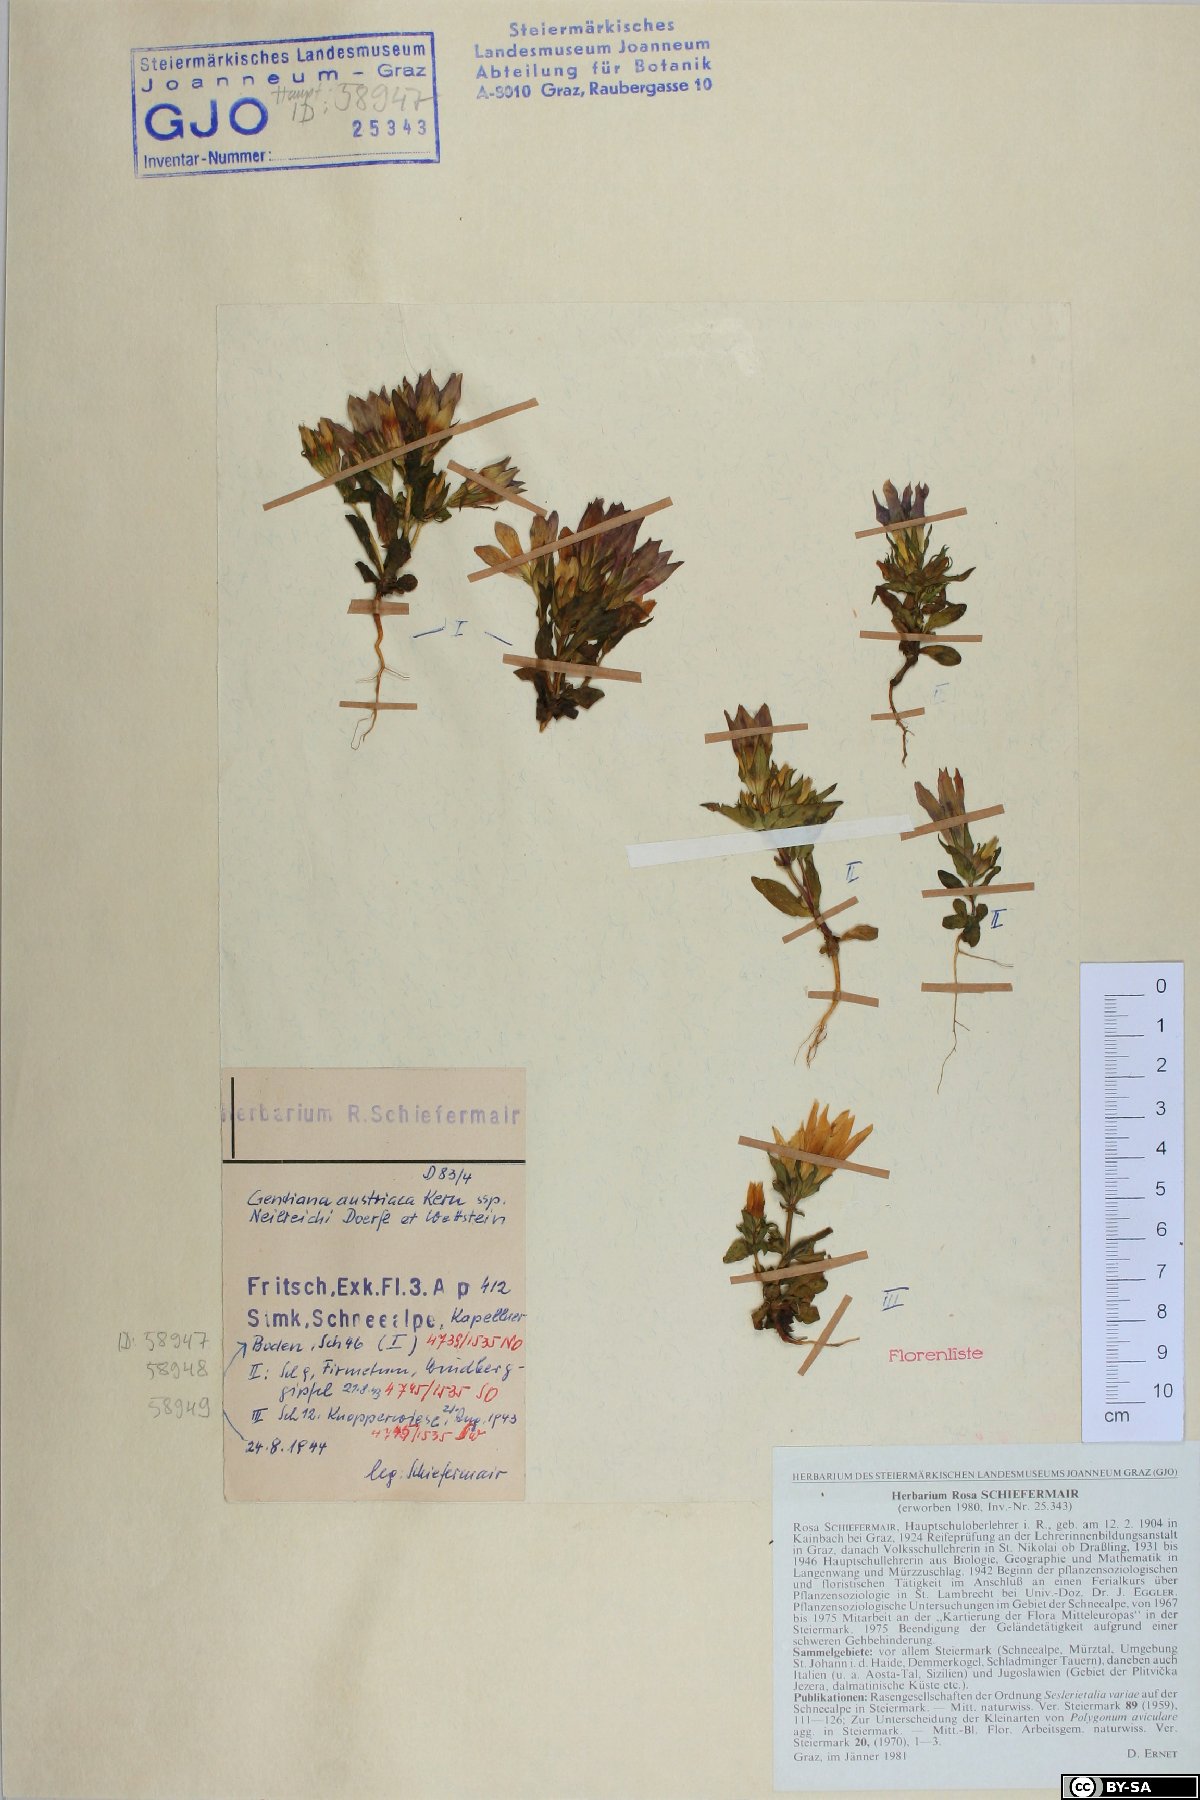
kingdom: Plantae
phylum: Tracheophyta
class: Magnoliopsida
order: Gentianales
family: Gentianaceae
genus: Gentianella
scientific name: Gentianella austriaca
